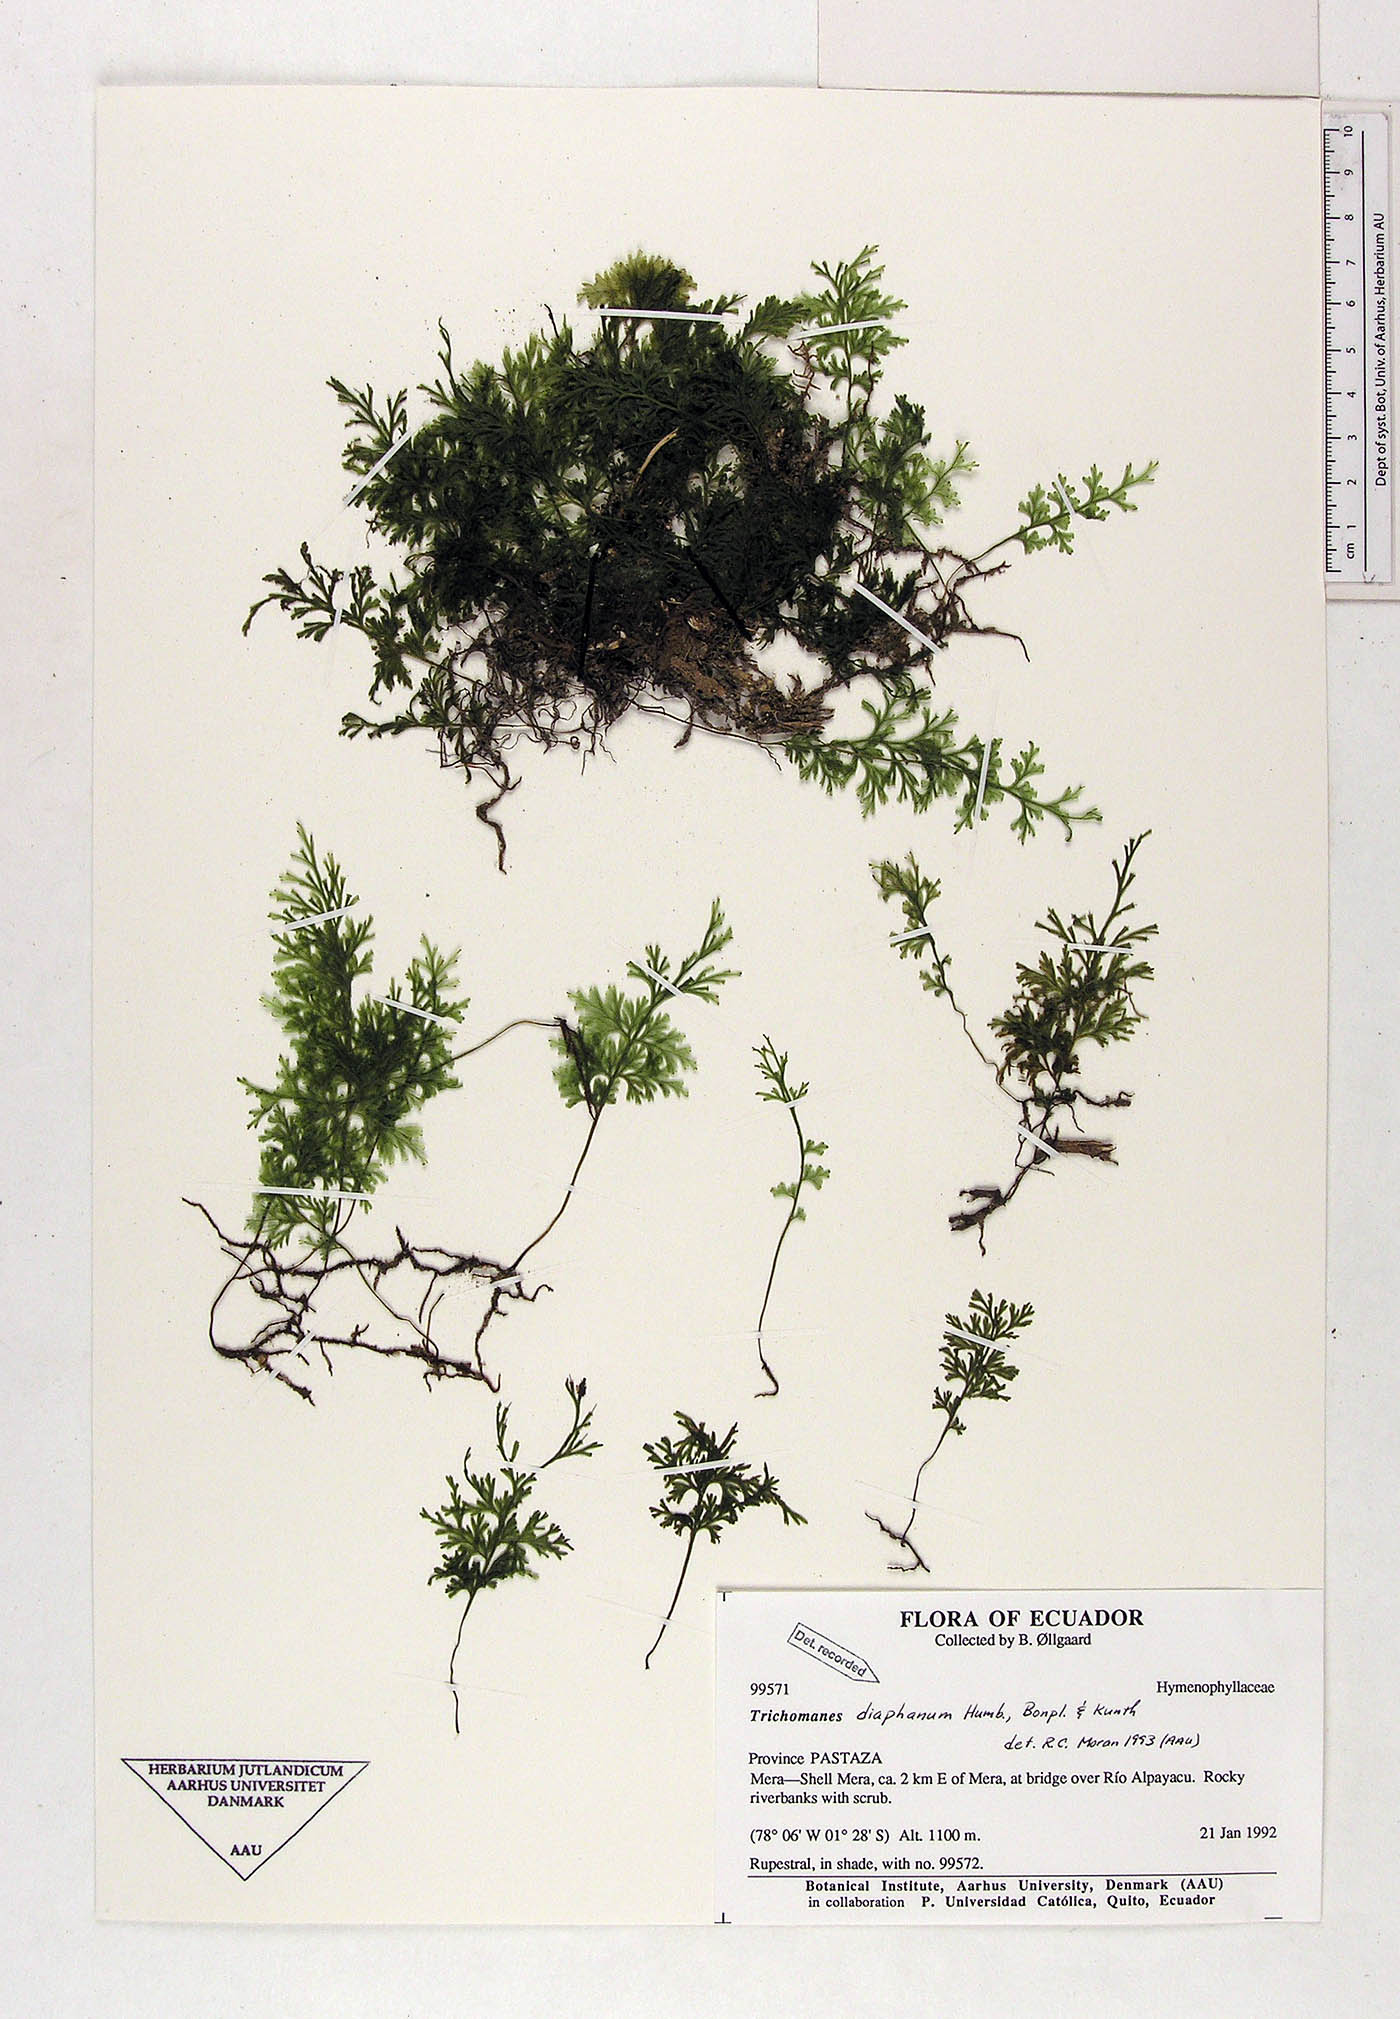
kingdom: Plantae
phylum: Tracheophyta
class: Polypodiopsida
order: Hymenophyllales
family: Hymenophyllaceae
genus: Polyphlebium
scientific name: Polyphlebium diaphanum
